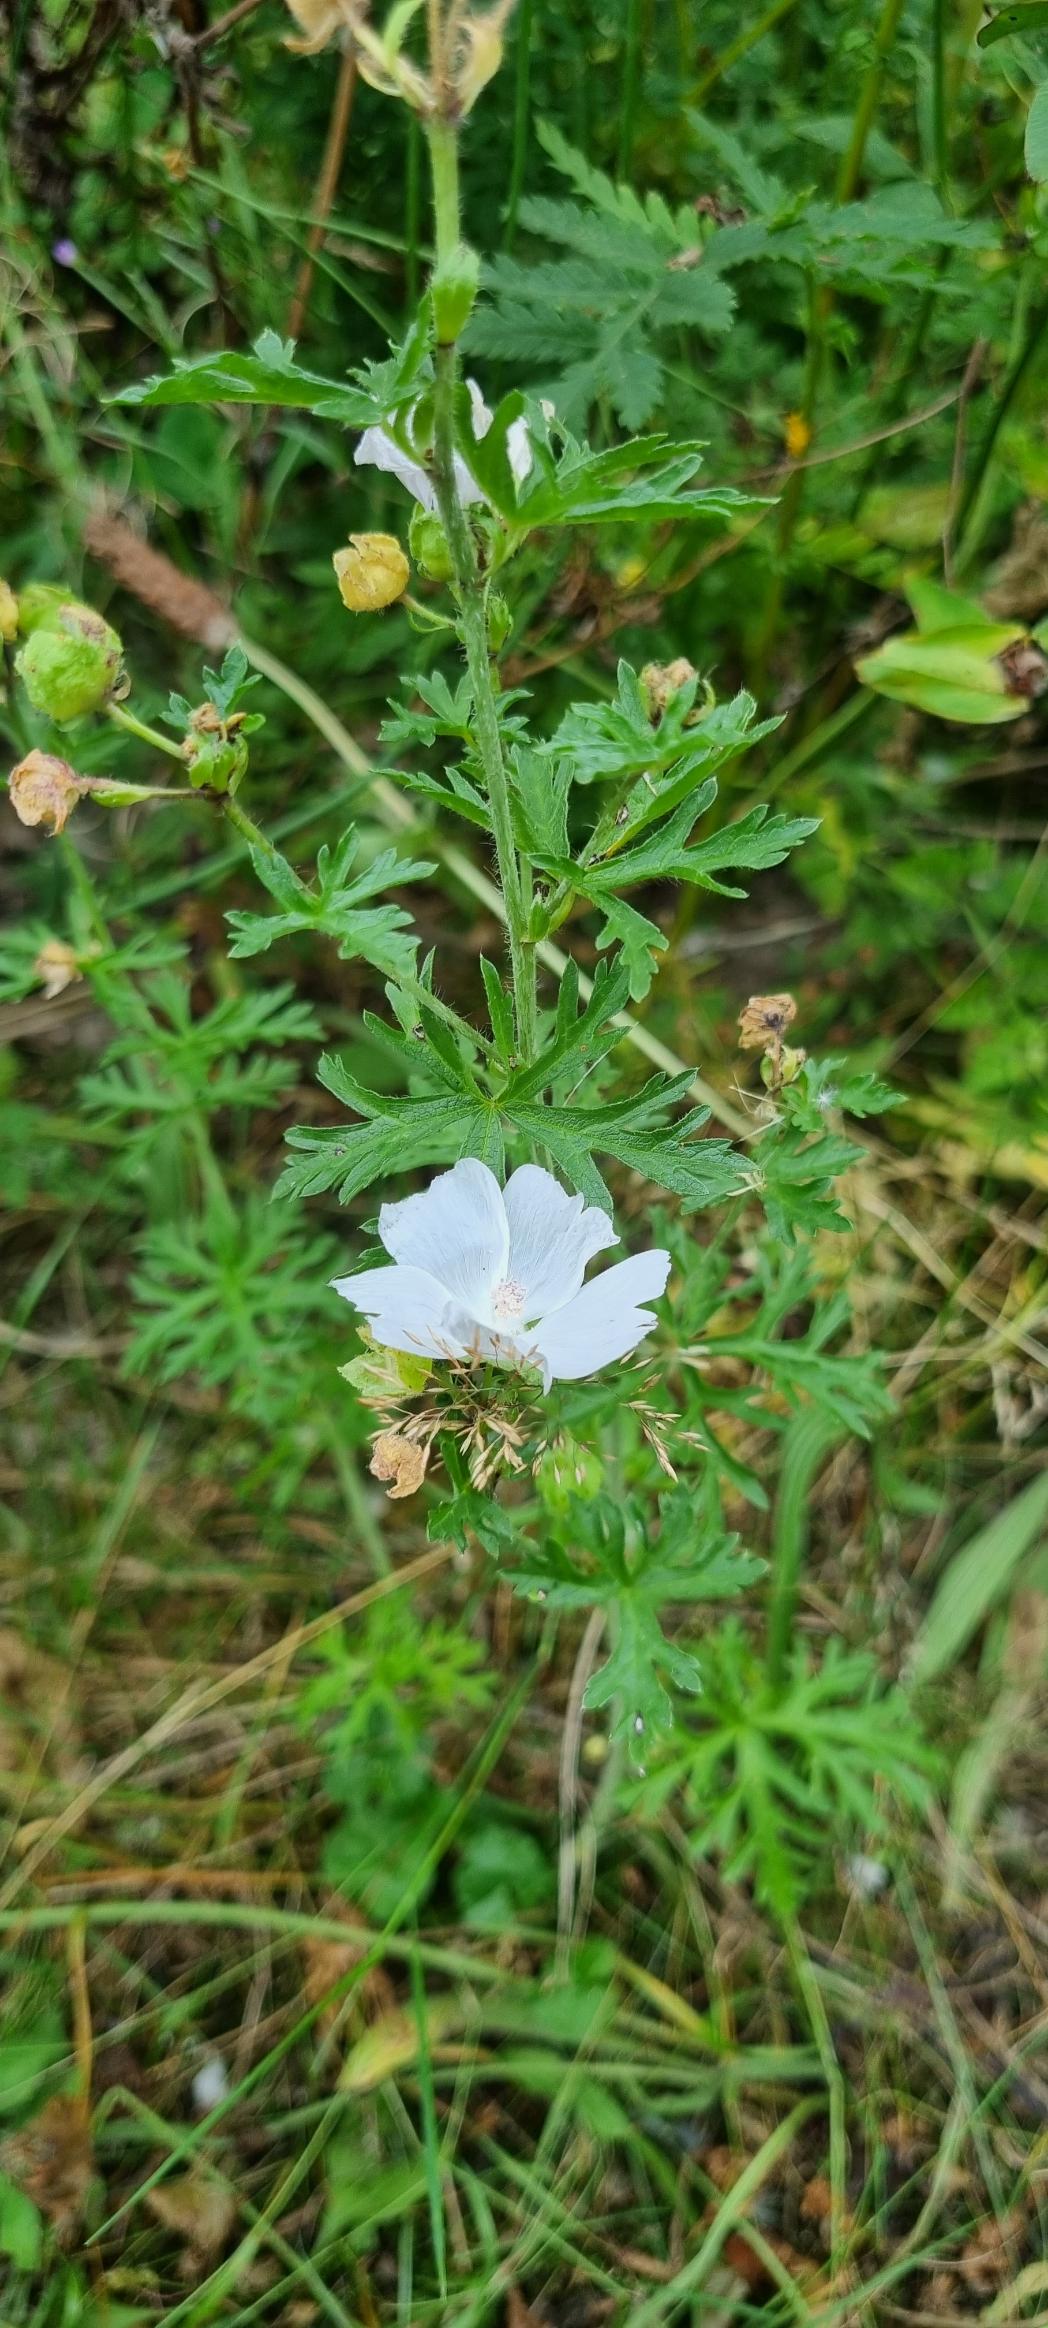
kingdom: Plantae
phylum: Tracheophyta
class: Magnoliopsida
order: Malvales
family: Malvaceae
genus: Malva
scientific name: Malva moschata
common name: Moskus-katost
